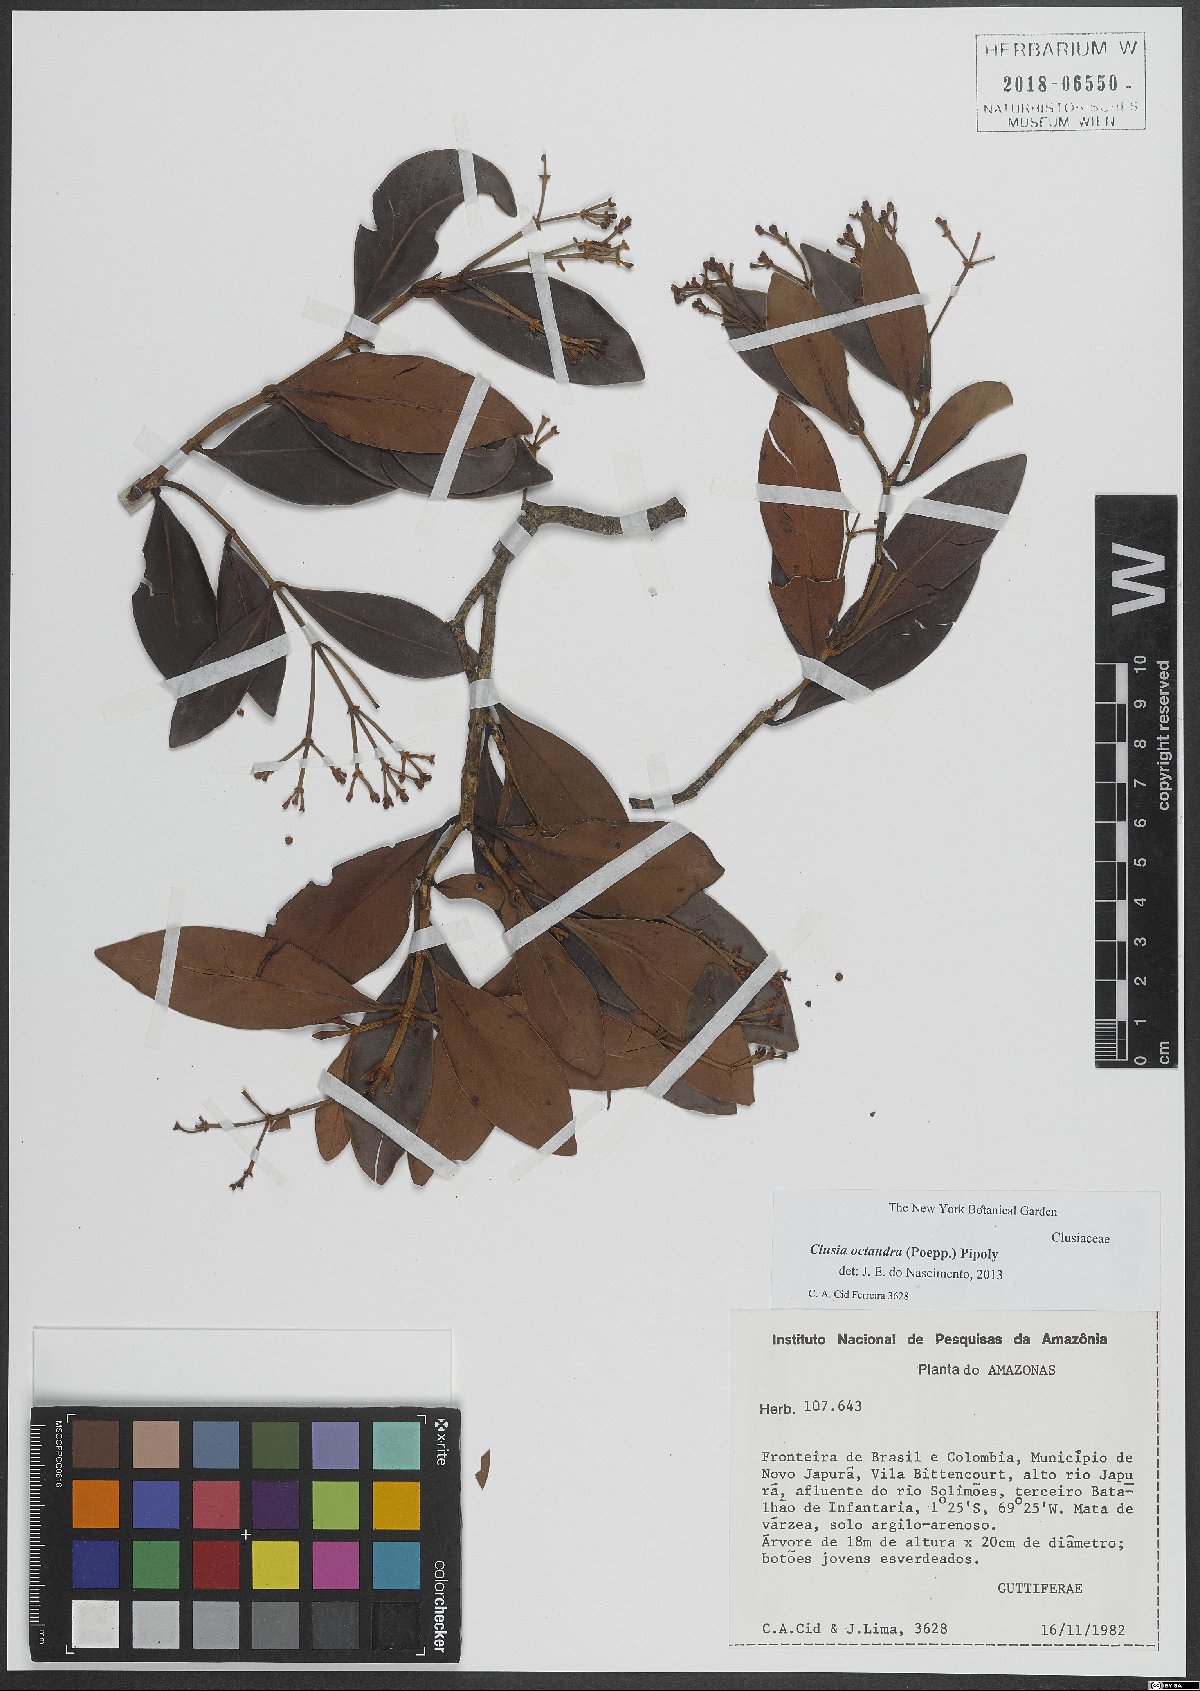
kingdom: Plantae
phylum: Tracheophyta
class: Magnoliopsida
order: Malpighiales
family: Clusiaceae
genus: Clusia
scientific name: Clusia octandra
